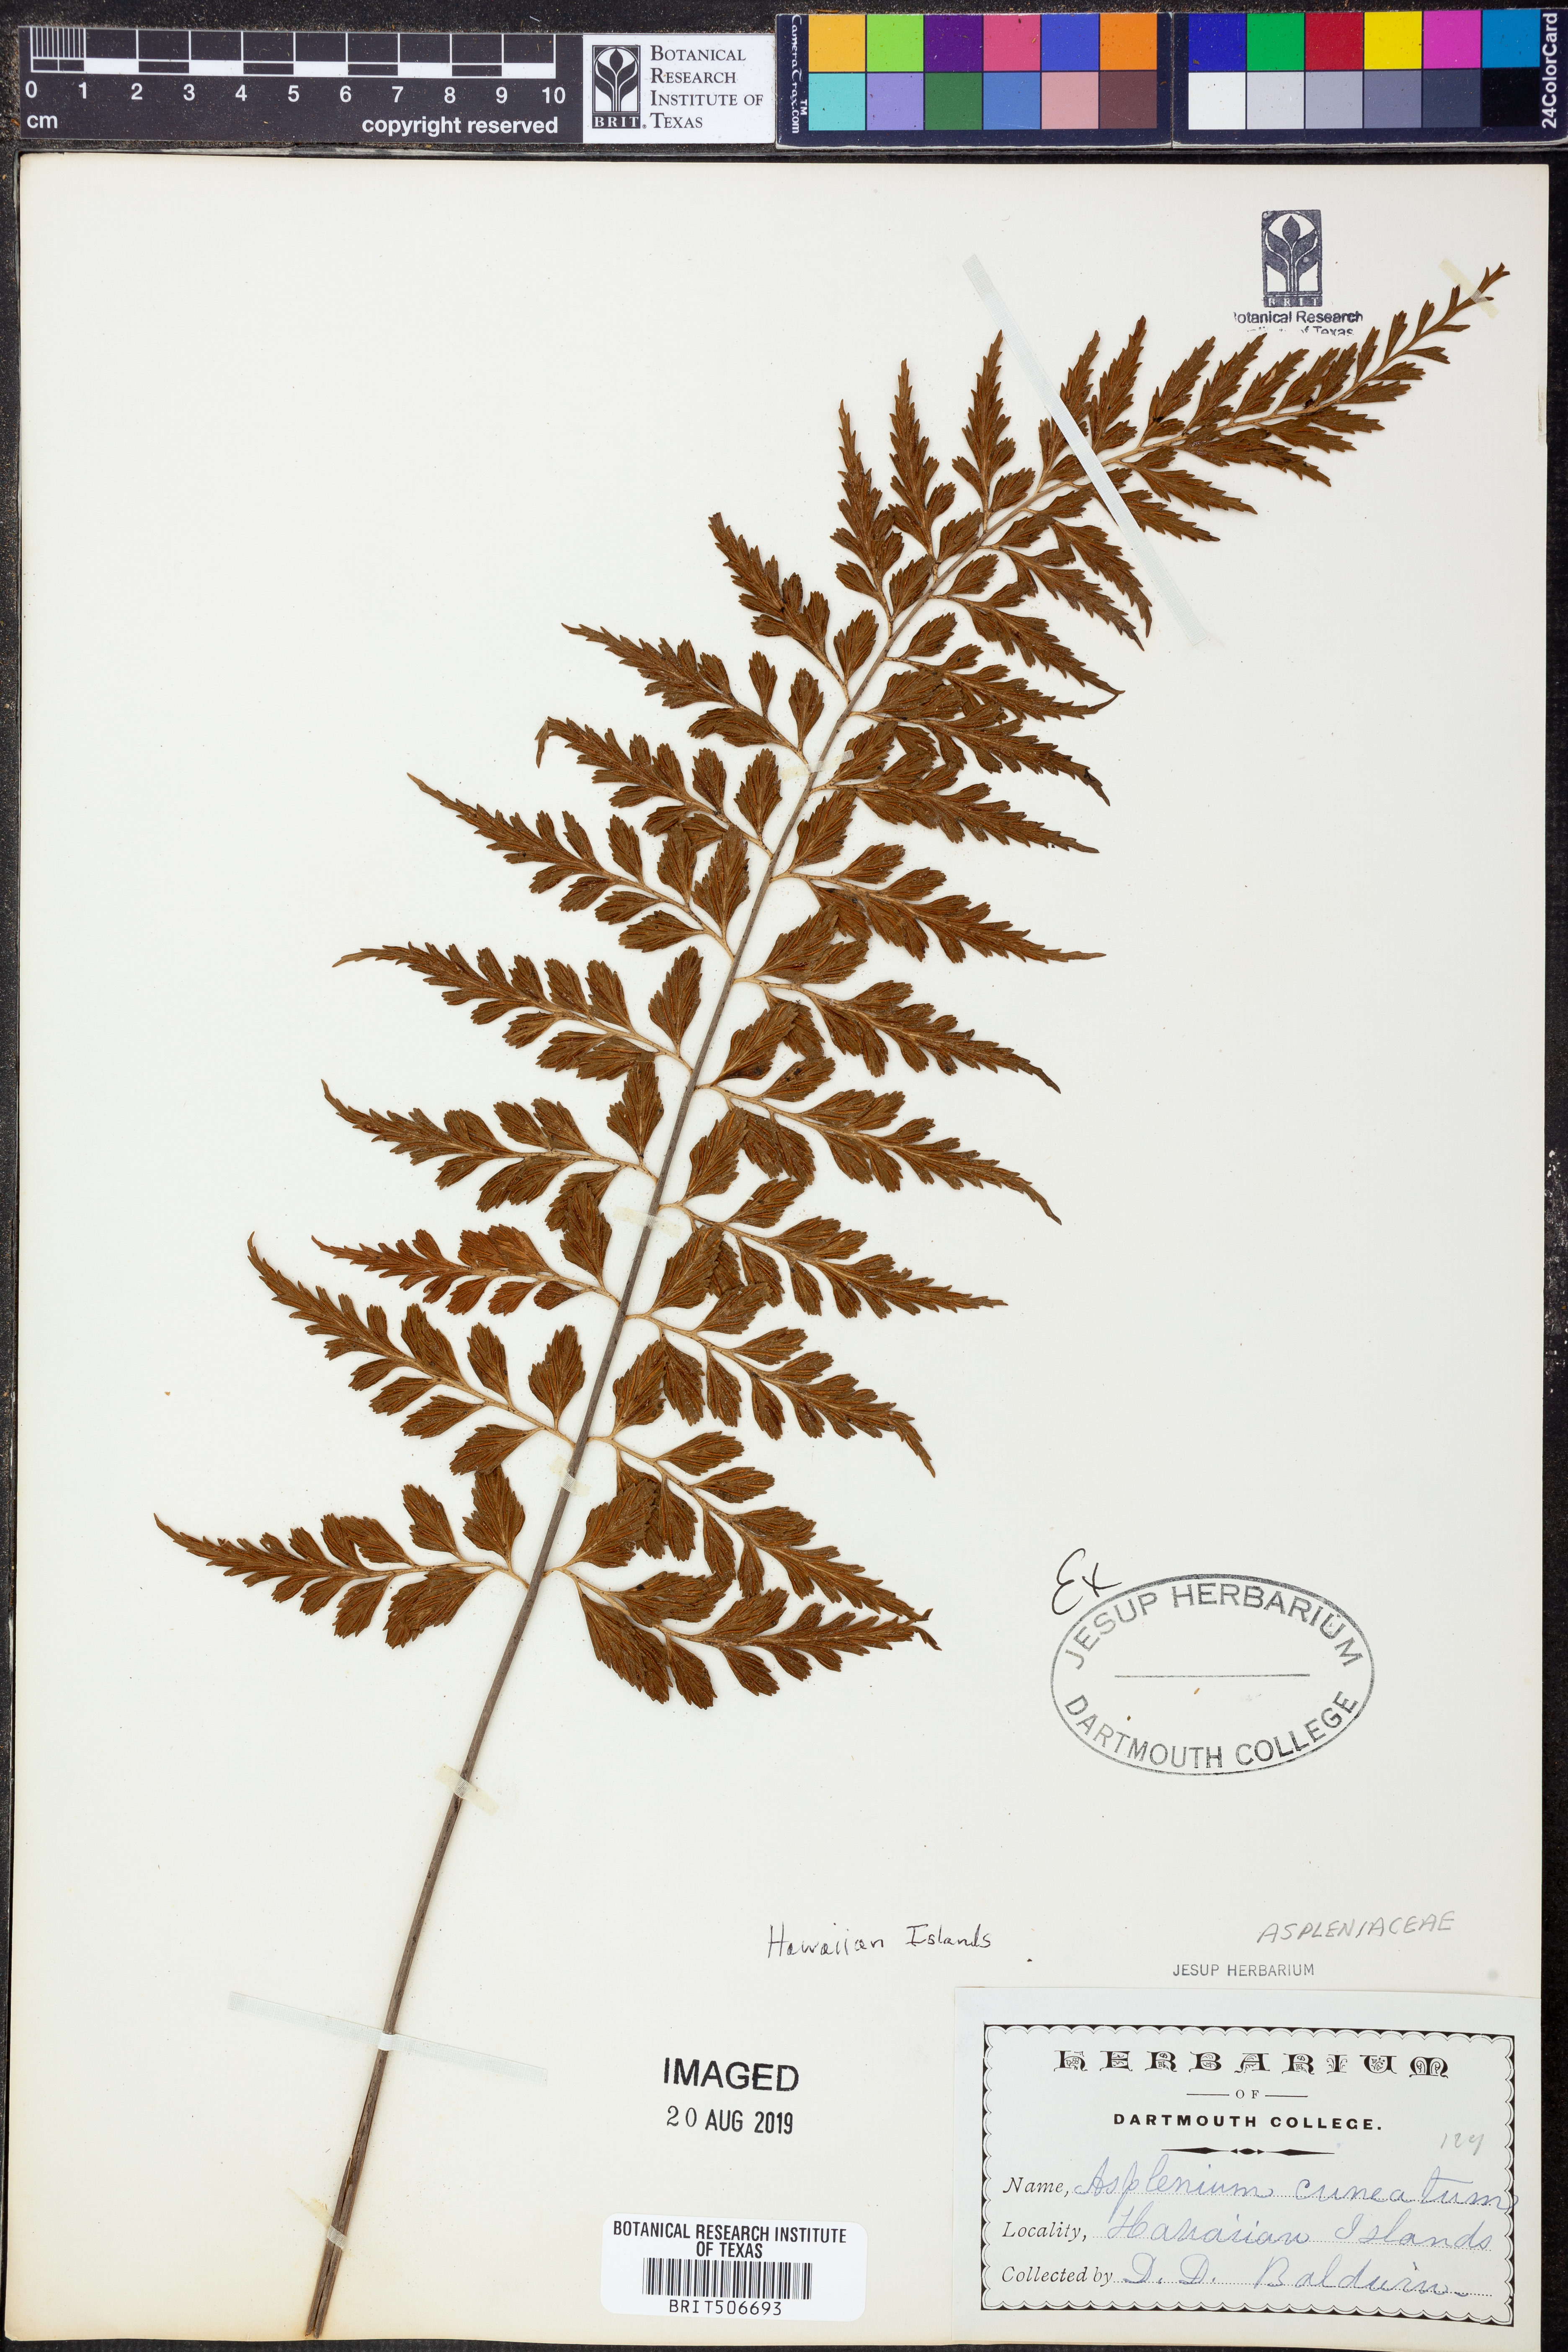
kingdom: Plantae
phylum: Tracheophyta
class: Polypodiopsida
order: Polypodiales
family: Aspleniaceae
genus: Asplenium
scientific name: Asplenium cuneatum
